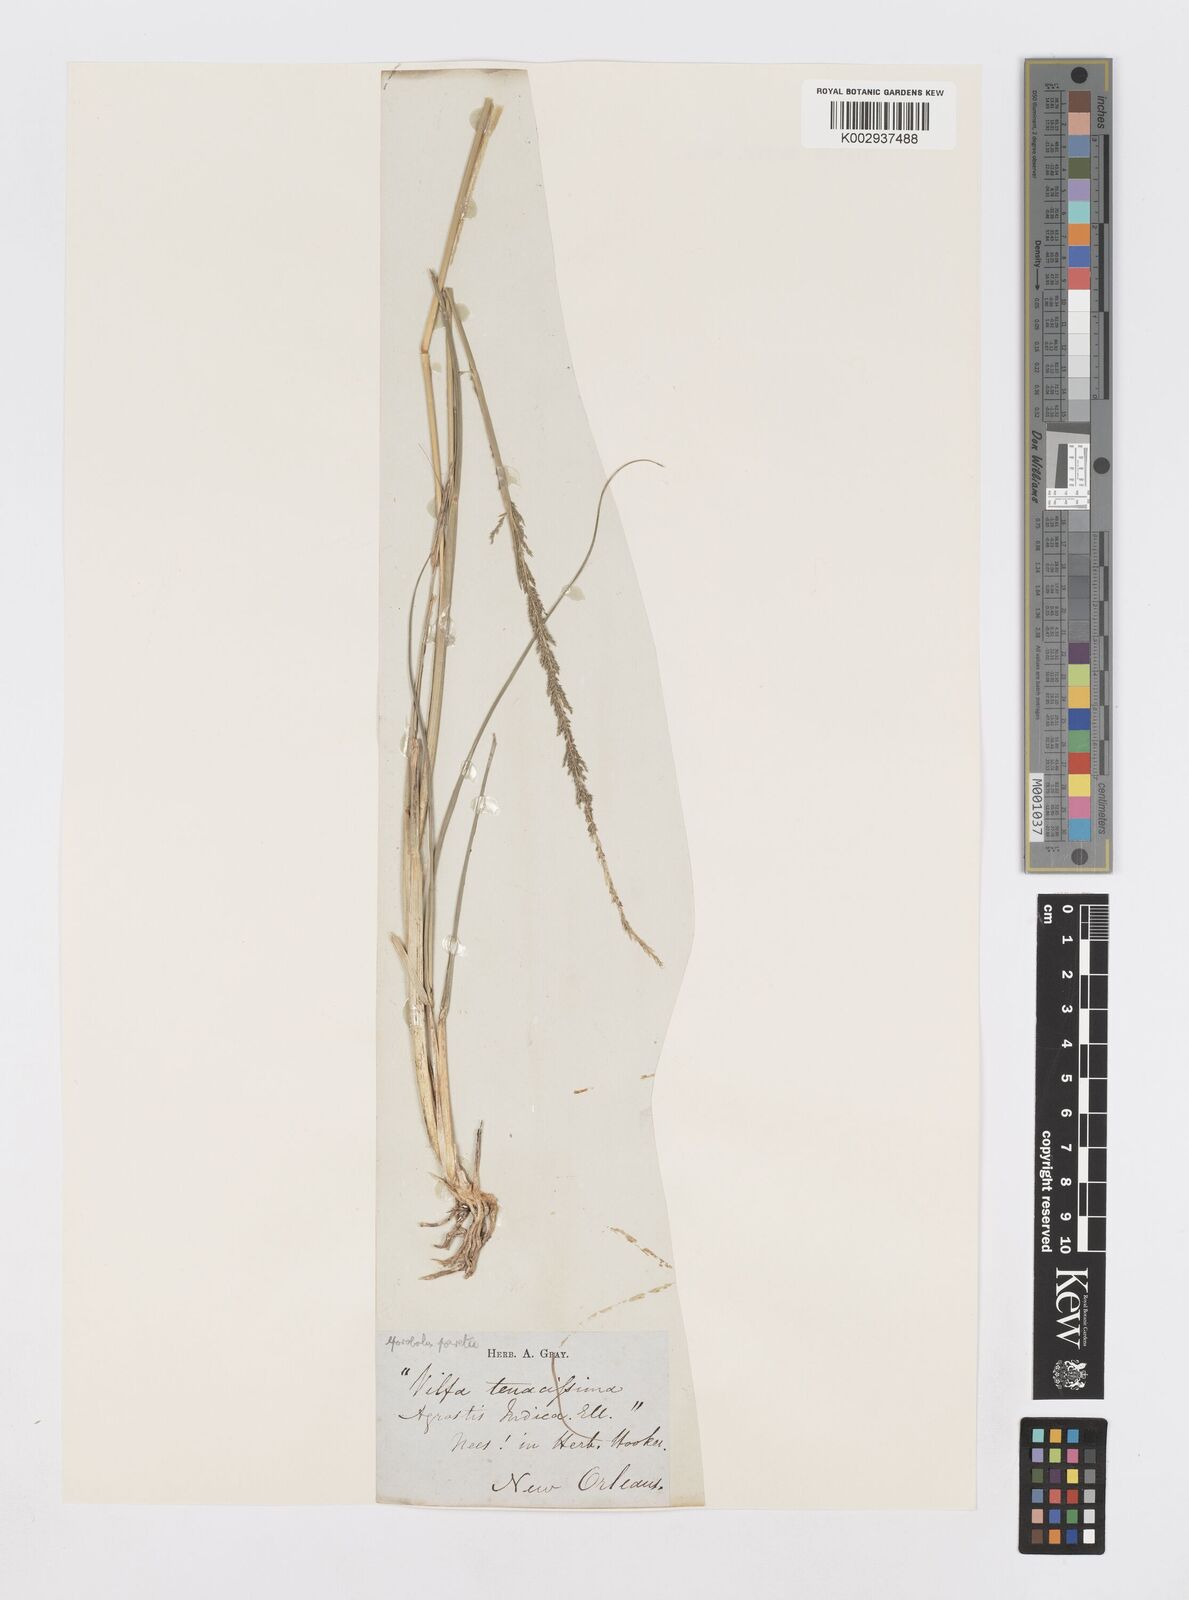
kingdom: Plantae
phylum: Tracheophyta
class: Liliopsida
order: Poales
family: Poaceae
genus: Sporobolus
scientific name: Sporobolus junceus
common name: Lizard grass
